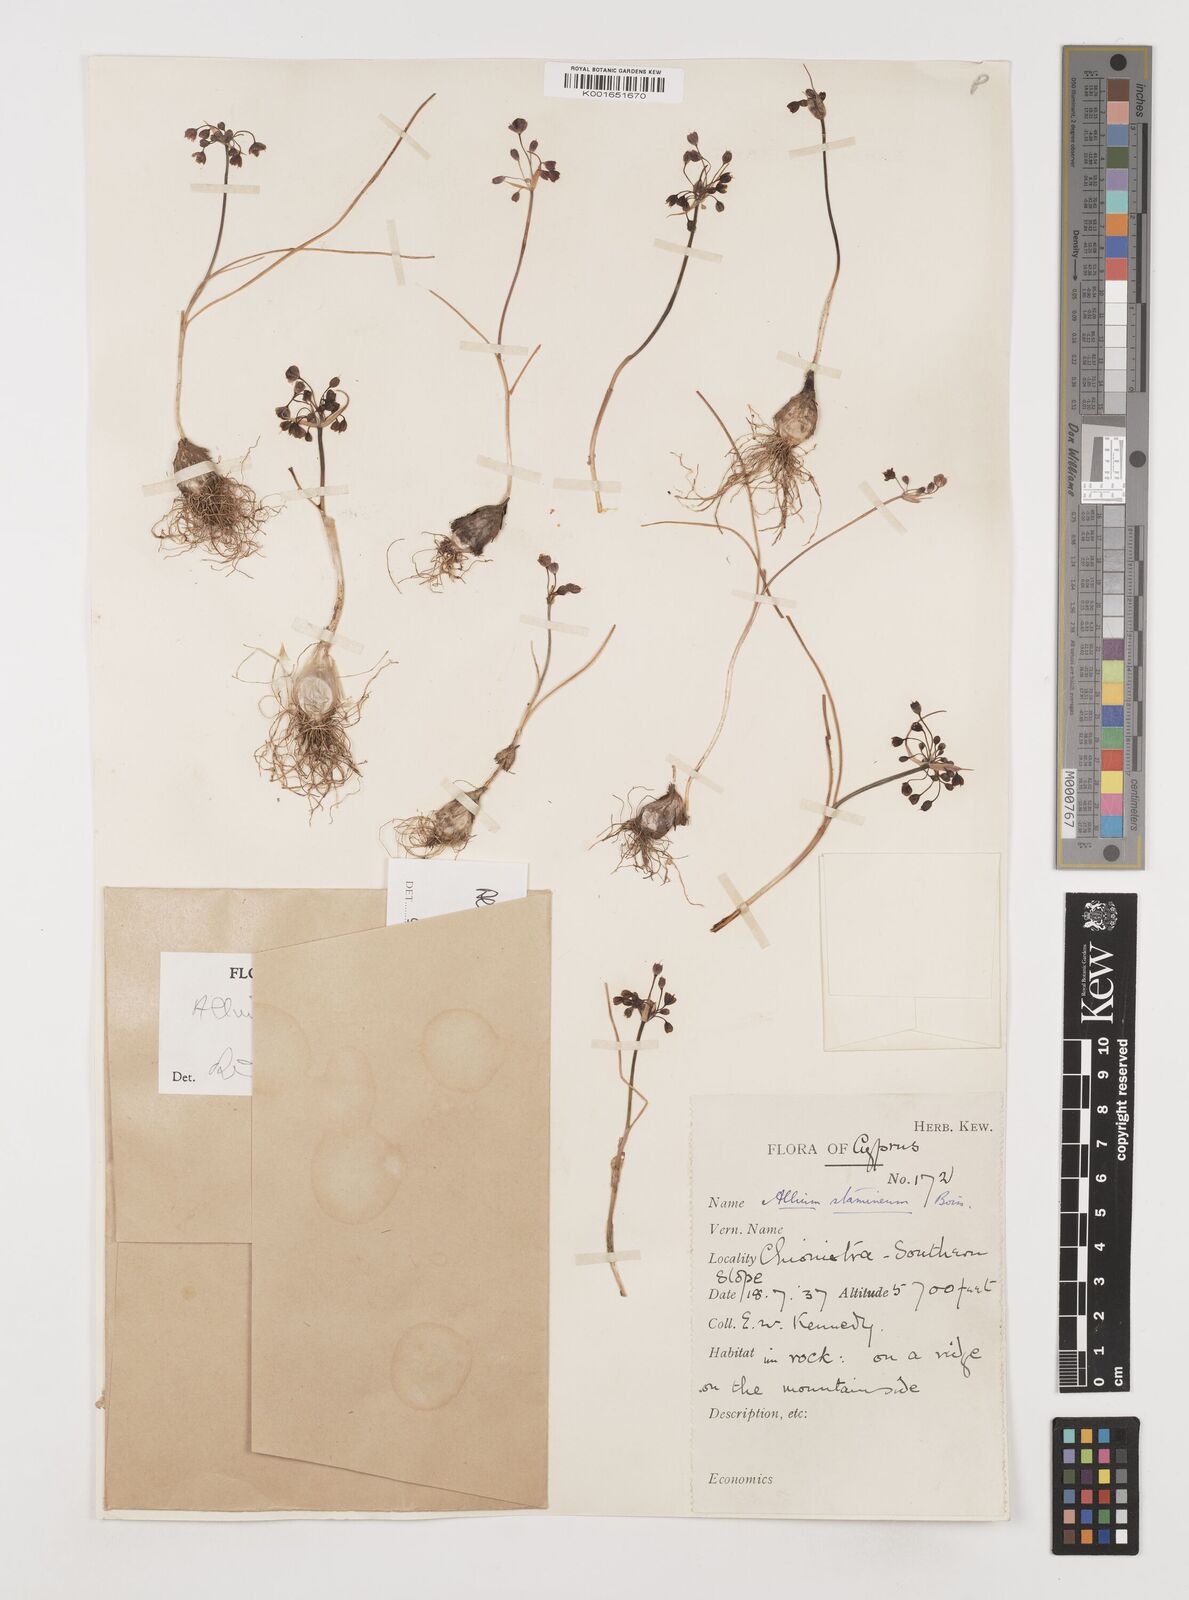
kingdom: Plantae
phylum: Tracheophyta
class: Liliopsida
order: Asparagales
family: Amaryllidaceae
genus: Allium
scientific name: Allium stamineum
